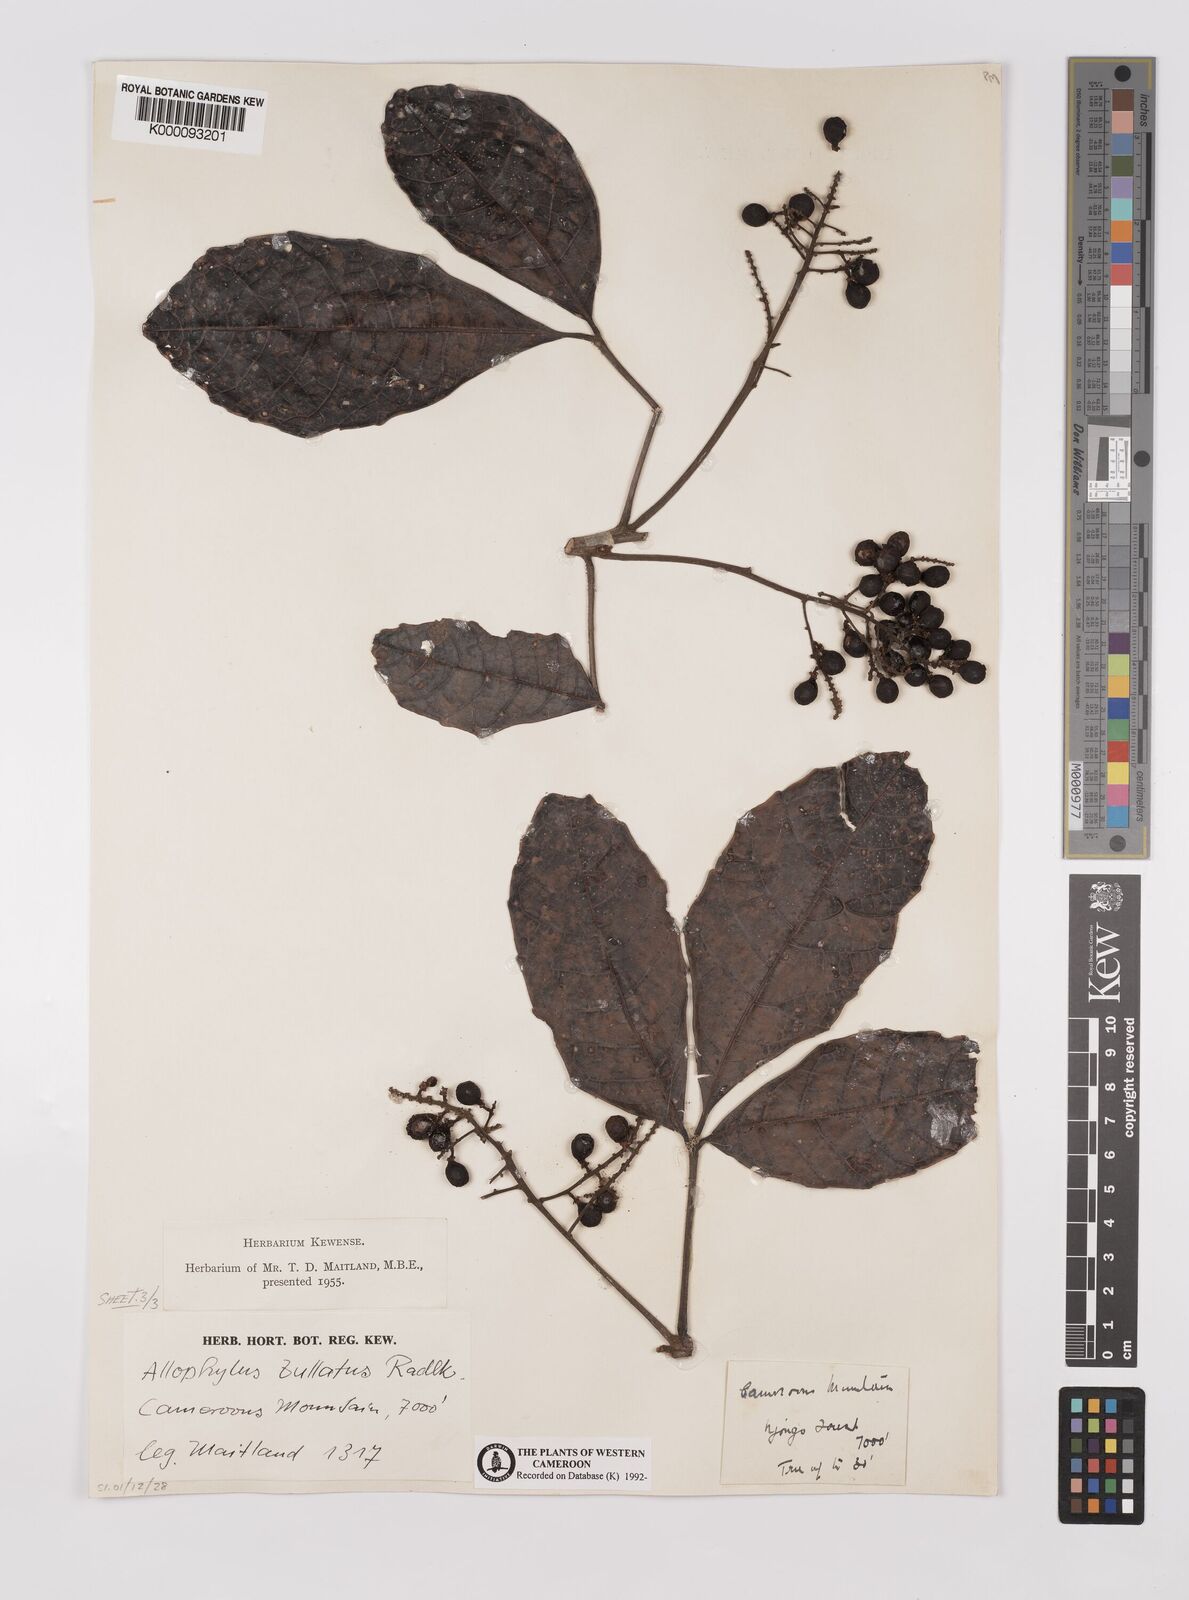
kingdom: Plantae
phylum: Tracheophyta
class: Magnoliopsida
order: Sapindales
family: Sapindaceae
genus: Allophylus
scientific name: Allophylus bullatus
